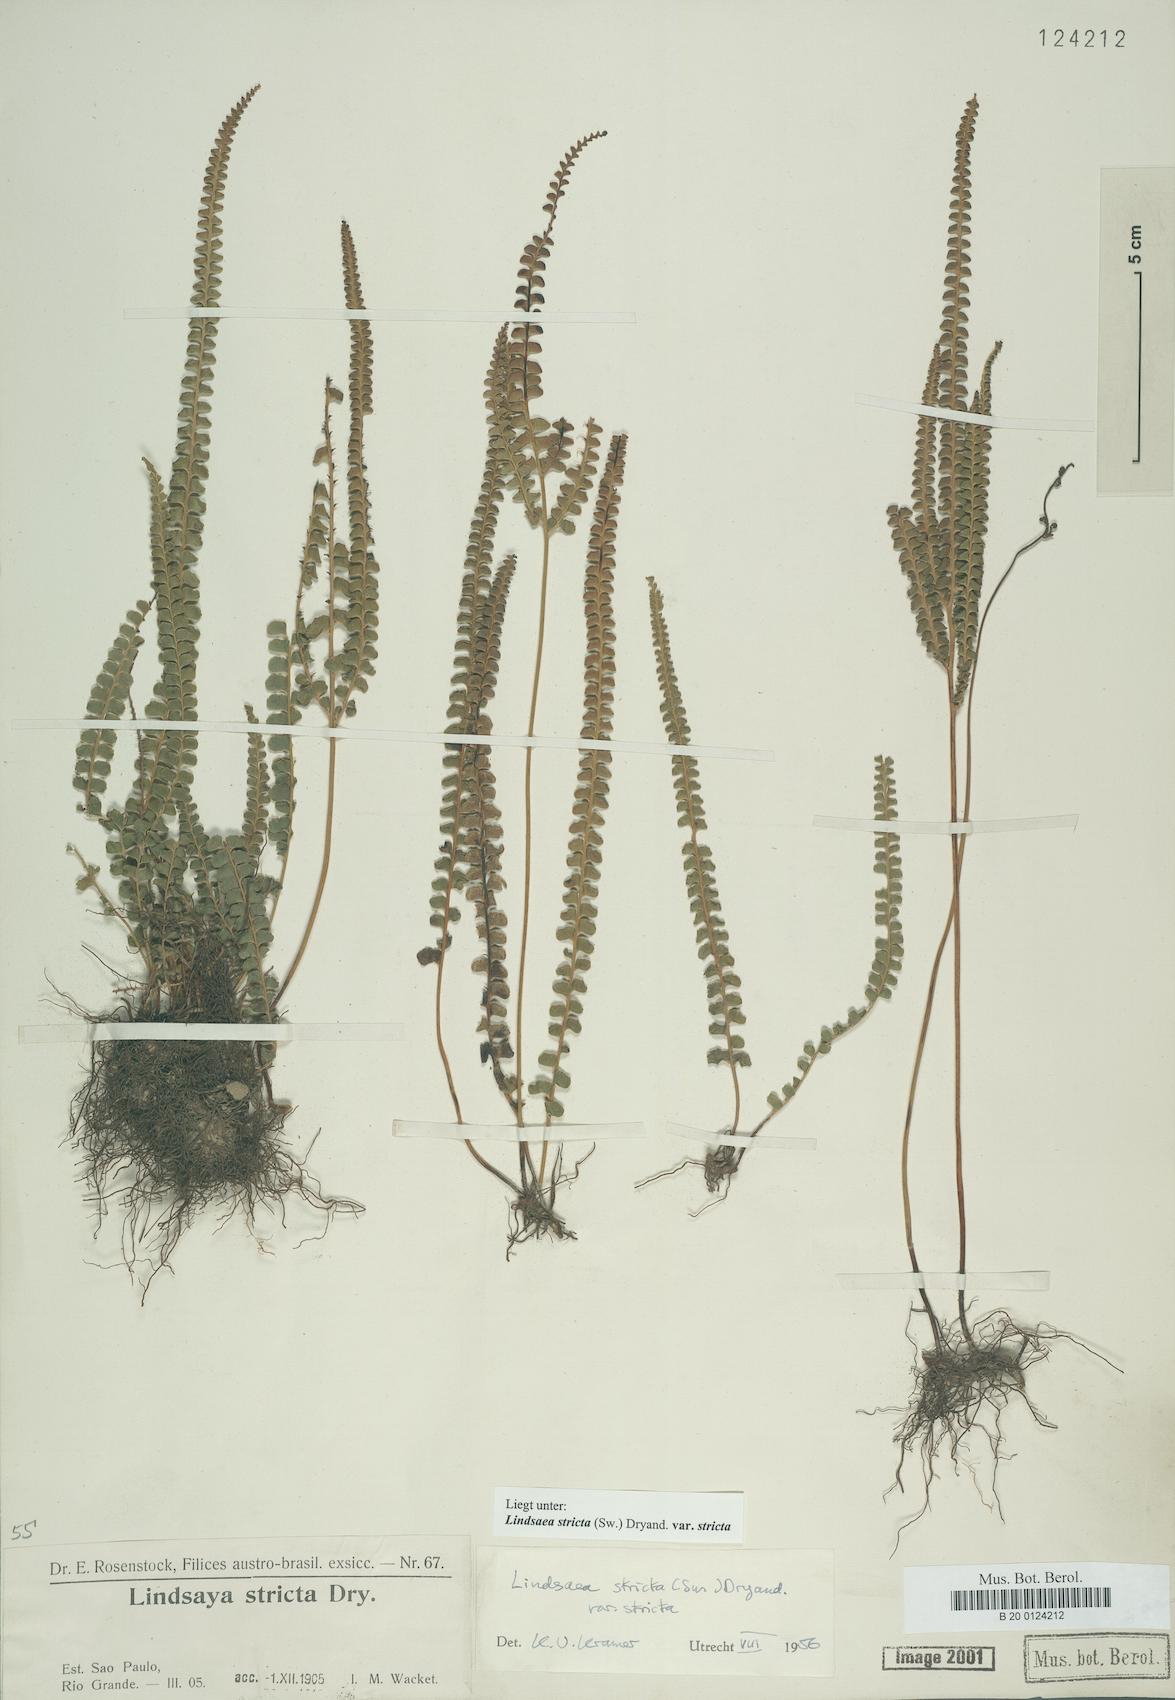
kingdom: Plantae
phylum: Tracheophyta
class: Polypodiopsida
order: Polypodiales
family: Lindsaeaceae
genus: Lindsaea
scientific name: Lindsaea stricta
